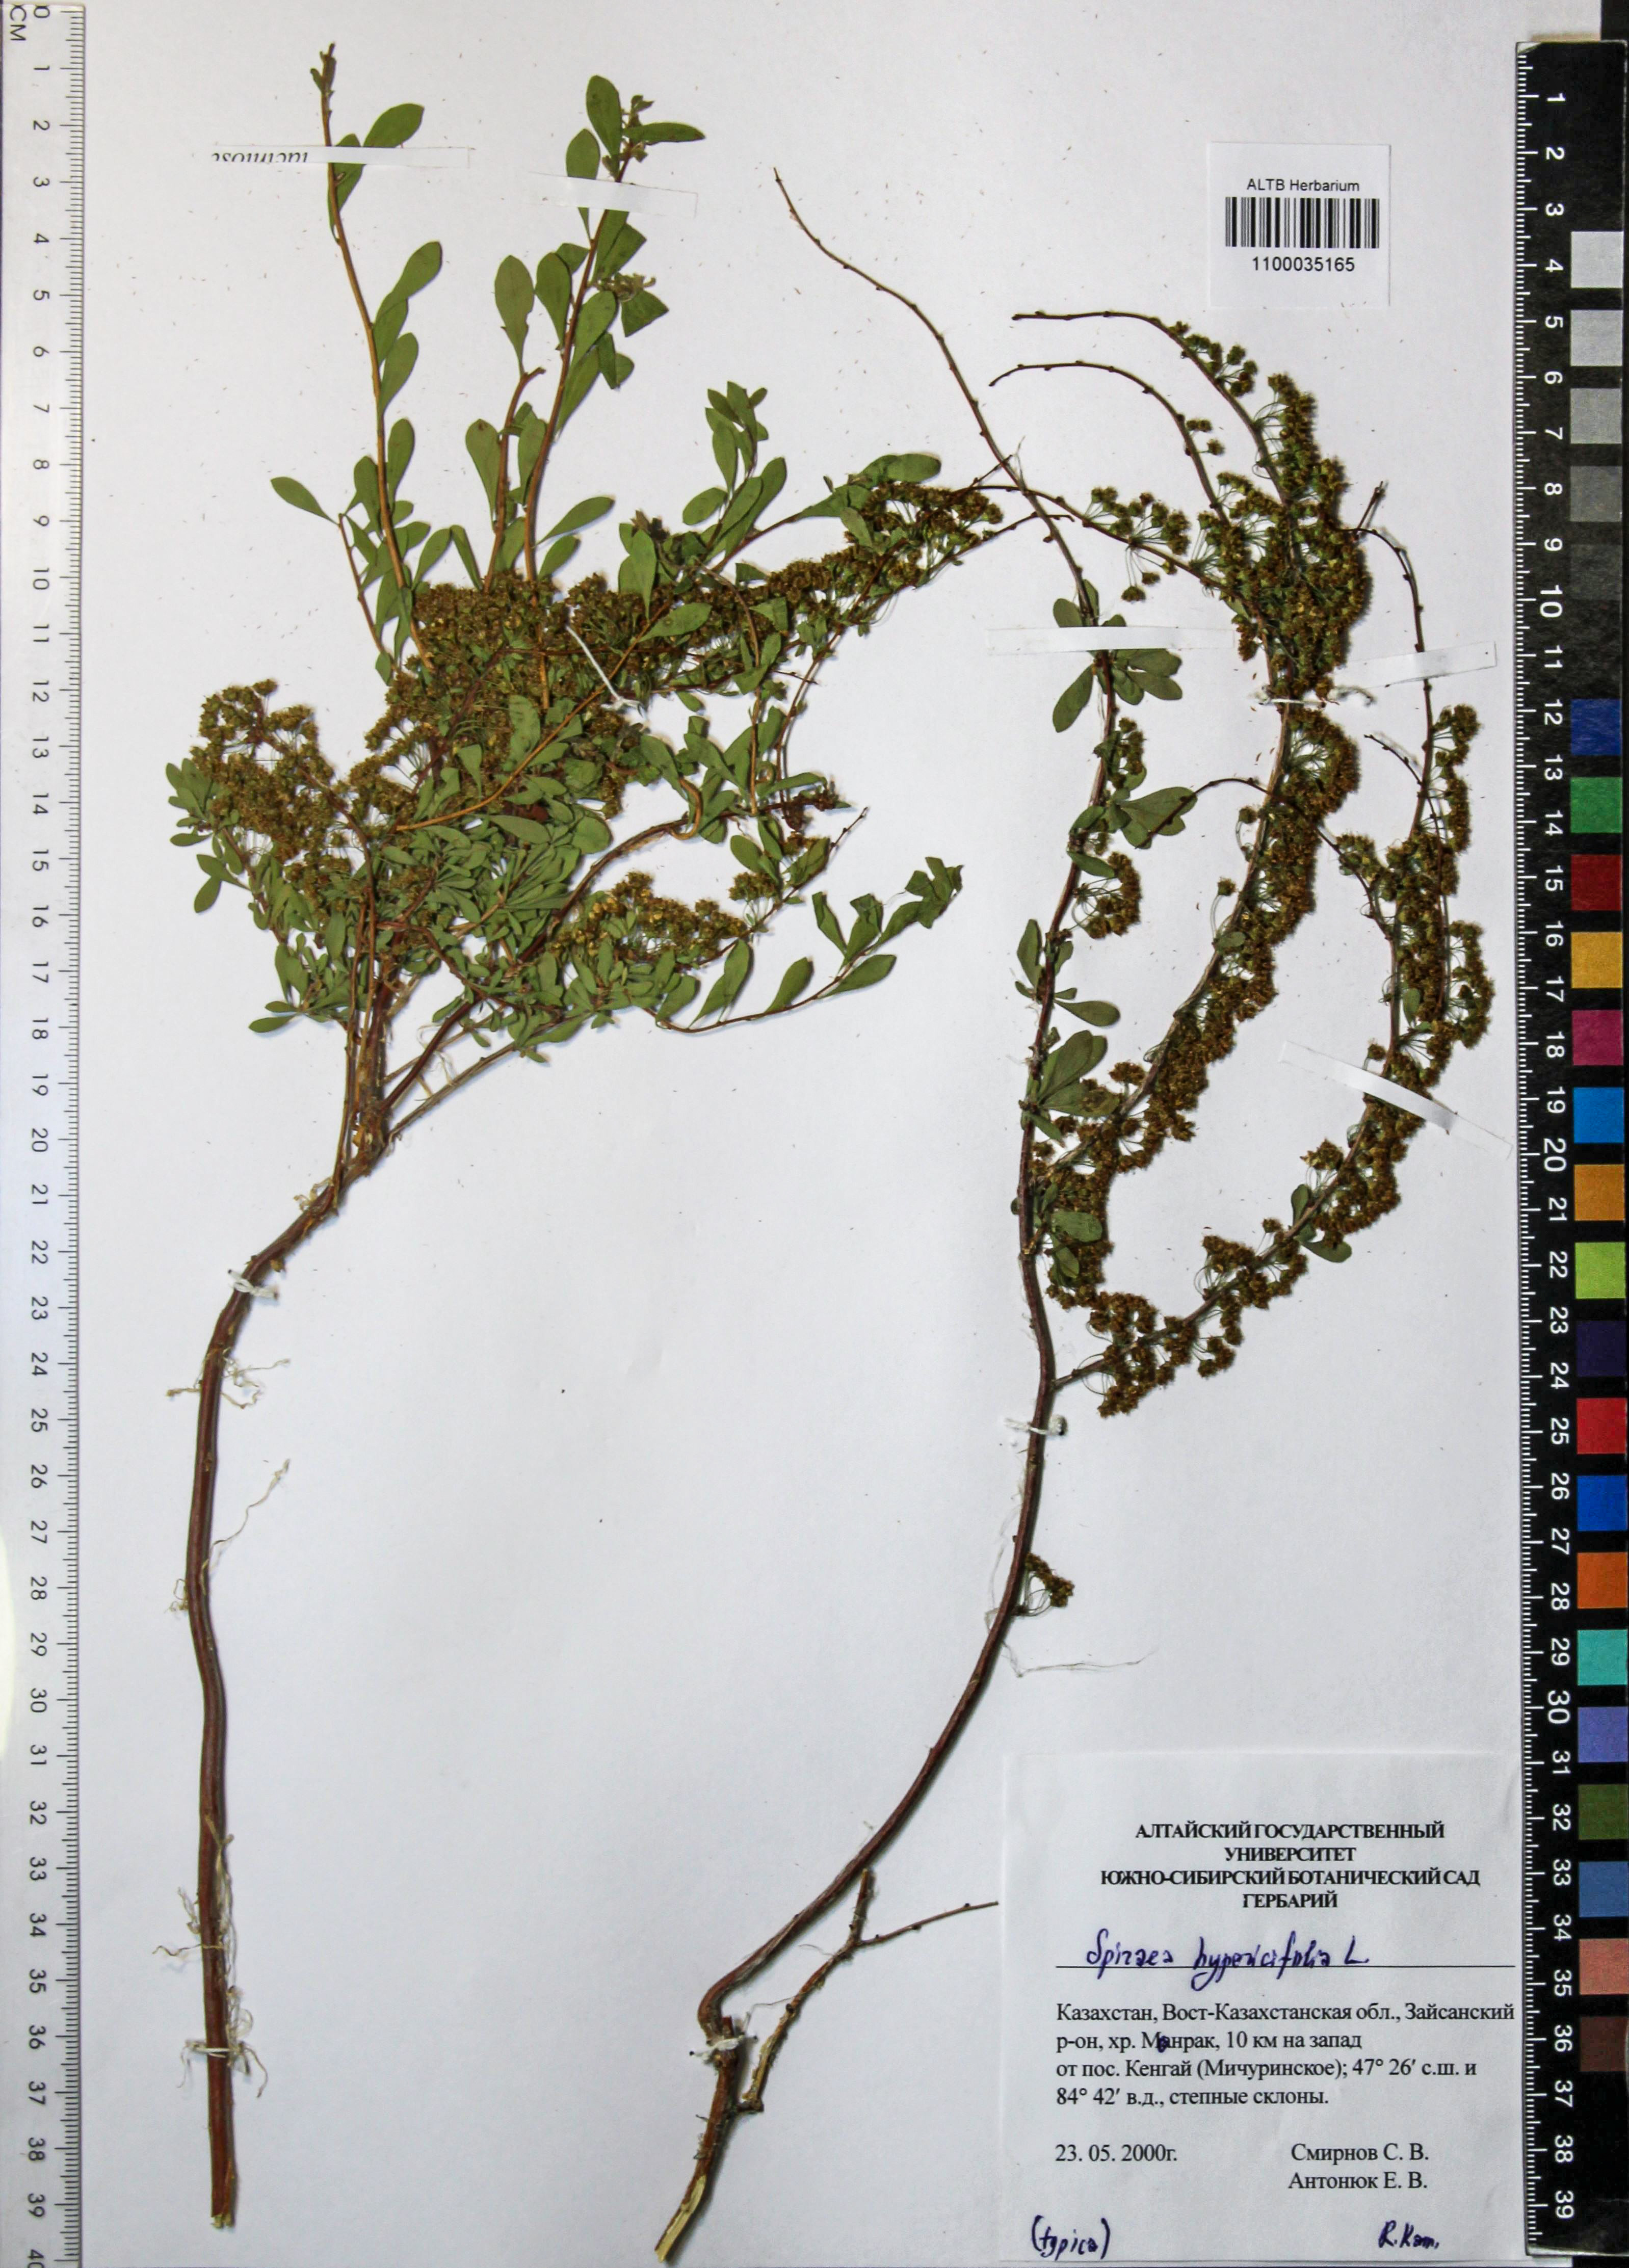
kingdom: Plantae
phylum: Tracheophyta
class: Magnoliopsida
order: Rosales
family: Rosaceae
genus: Spiraea
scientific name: Spiraea hypericifolia
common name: Iberian spirea
